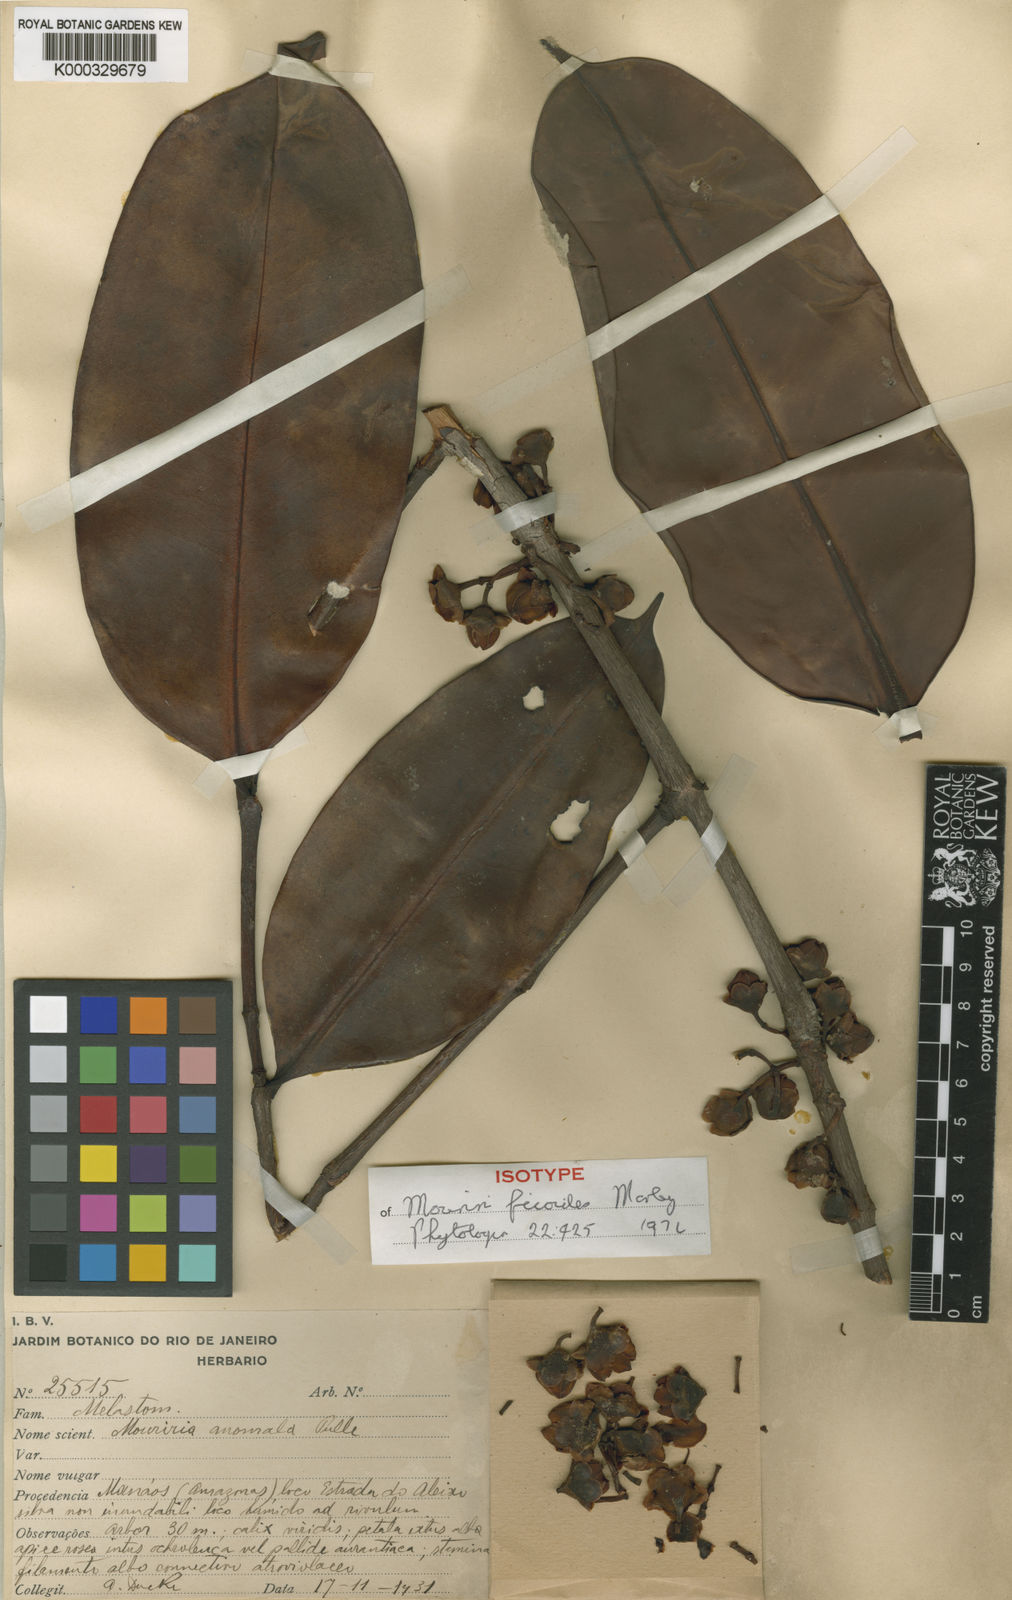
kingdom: Plantae
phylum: Tracheophyta
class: Magnoliopsida
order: Myrtales
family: Melastomataceae
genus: Mouriri
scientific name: Mouriri ficoides
